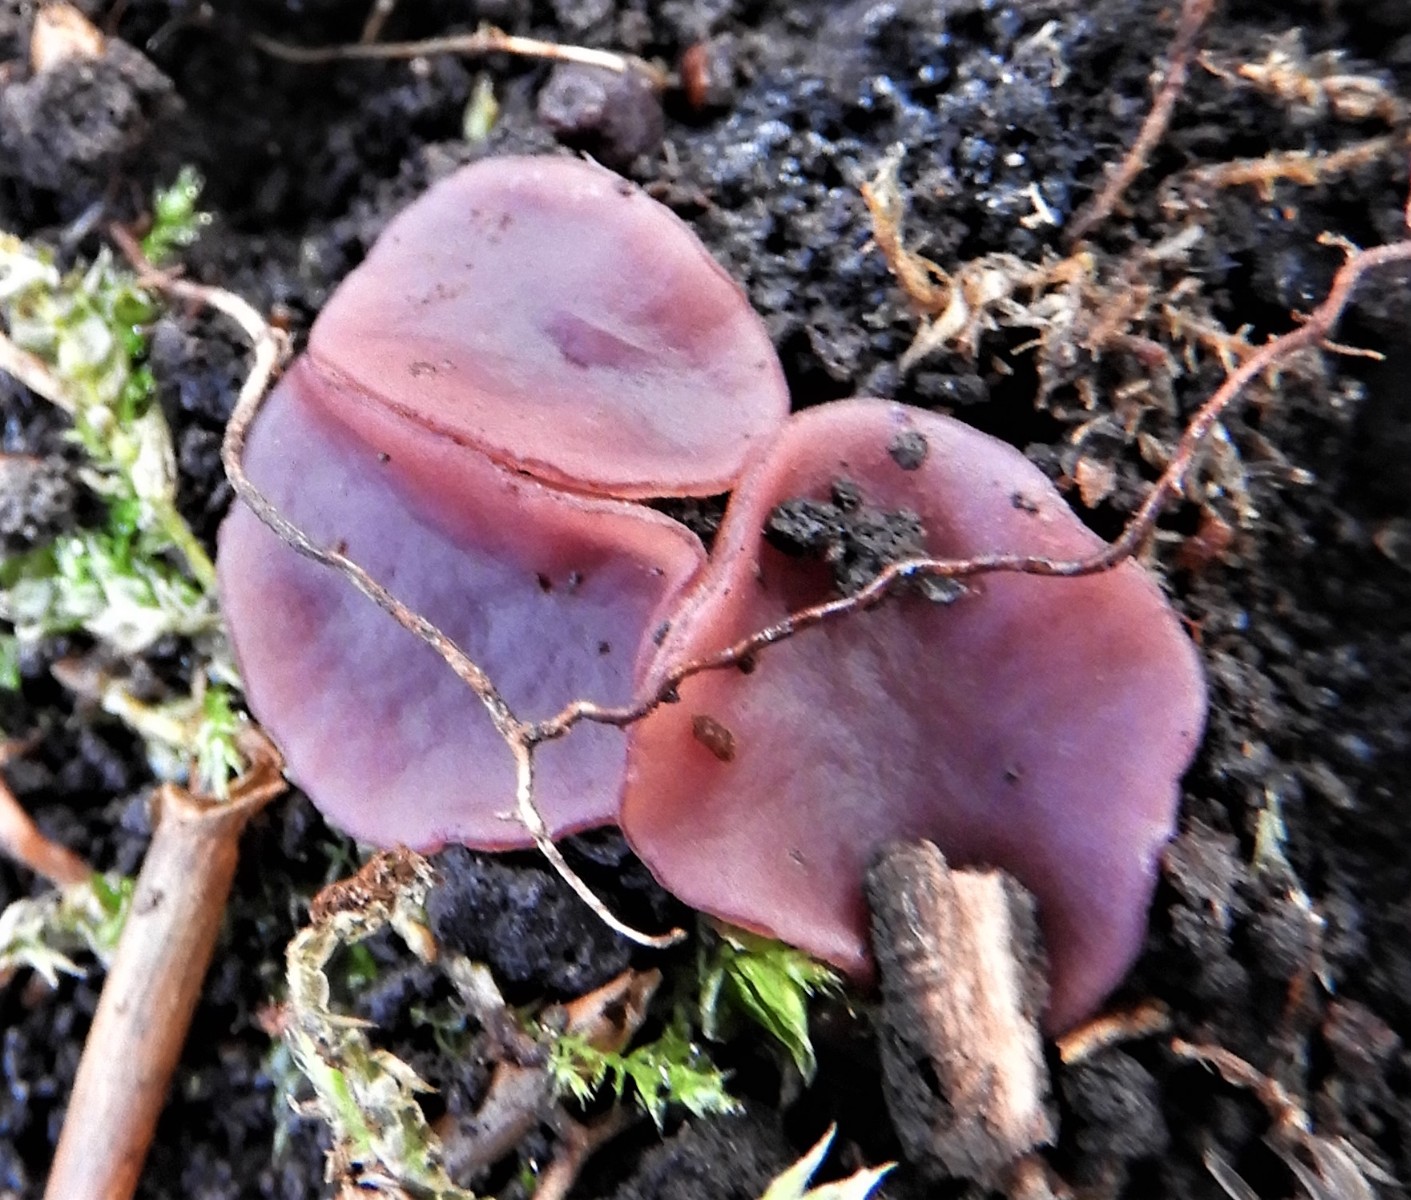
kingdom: Fungi
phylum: Ascomycota
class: Leotiomycetes
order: Helotiales
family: Gelatinodiscaceae
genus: Ascocoryne
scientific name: Ascocoryne cylichnium
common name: stor sejskive
